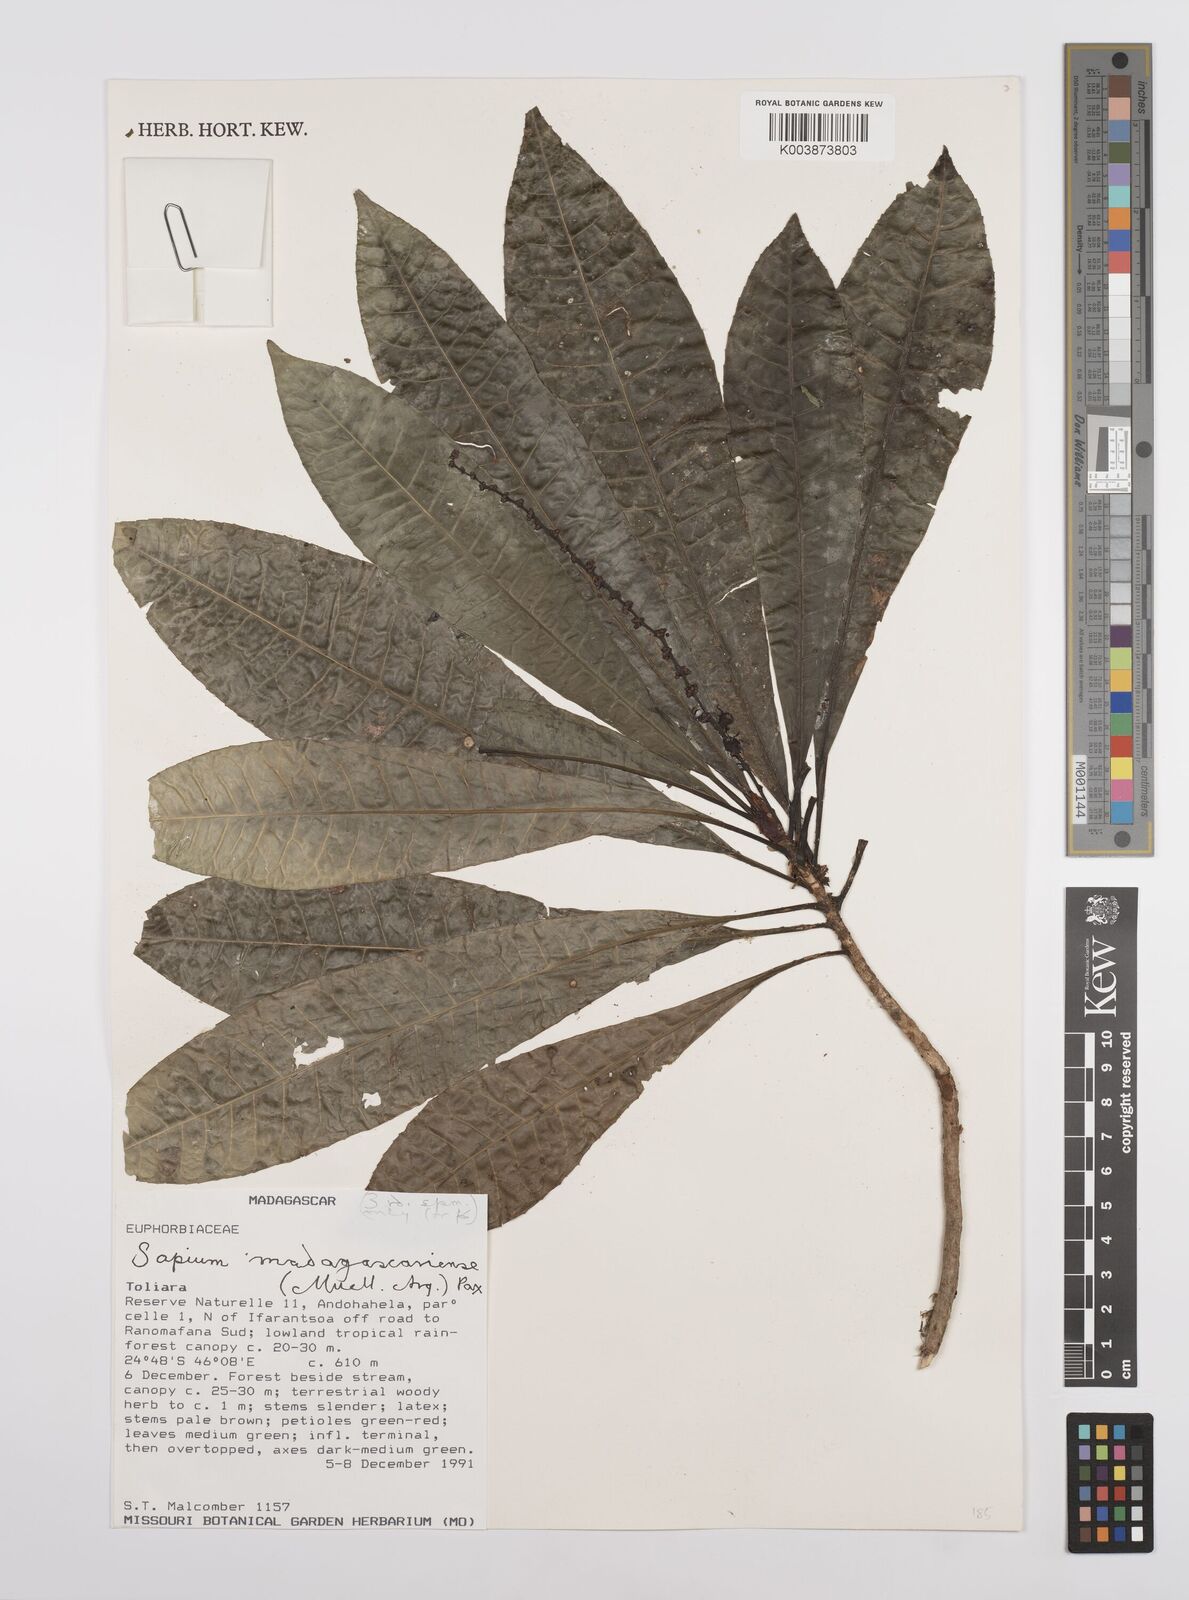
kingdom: Plantae
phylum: Tracheophyta
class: Magnoliopsida
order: Malpighiales
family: Euphorbiaceae
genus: Conosapium
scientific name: Conosapium madagascariense
